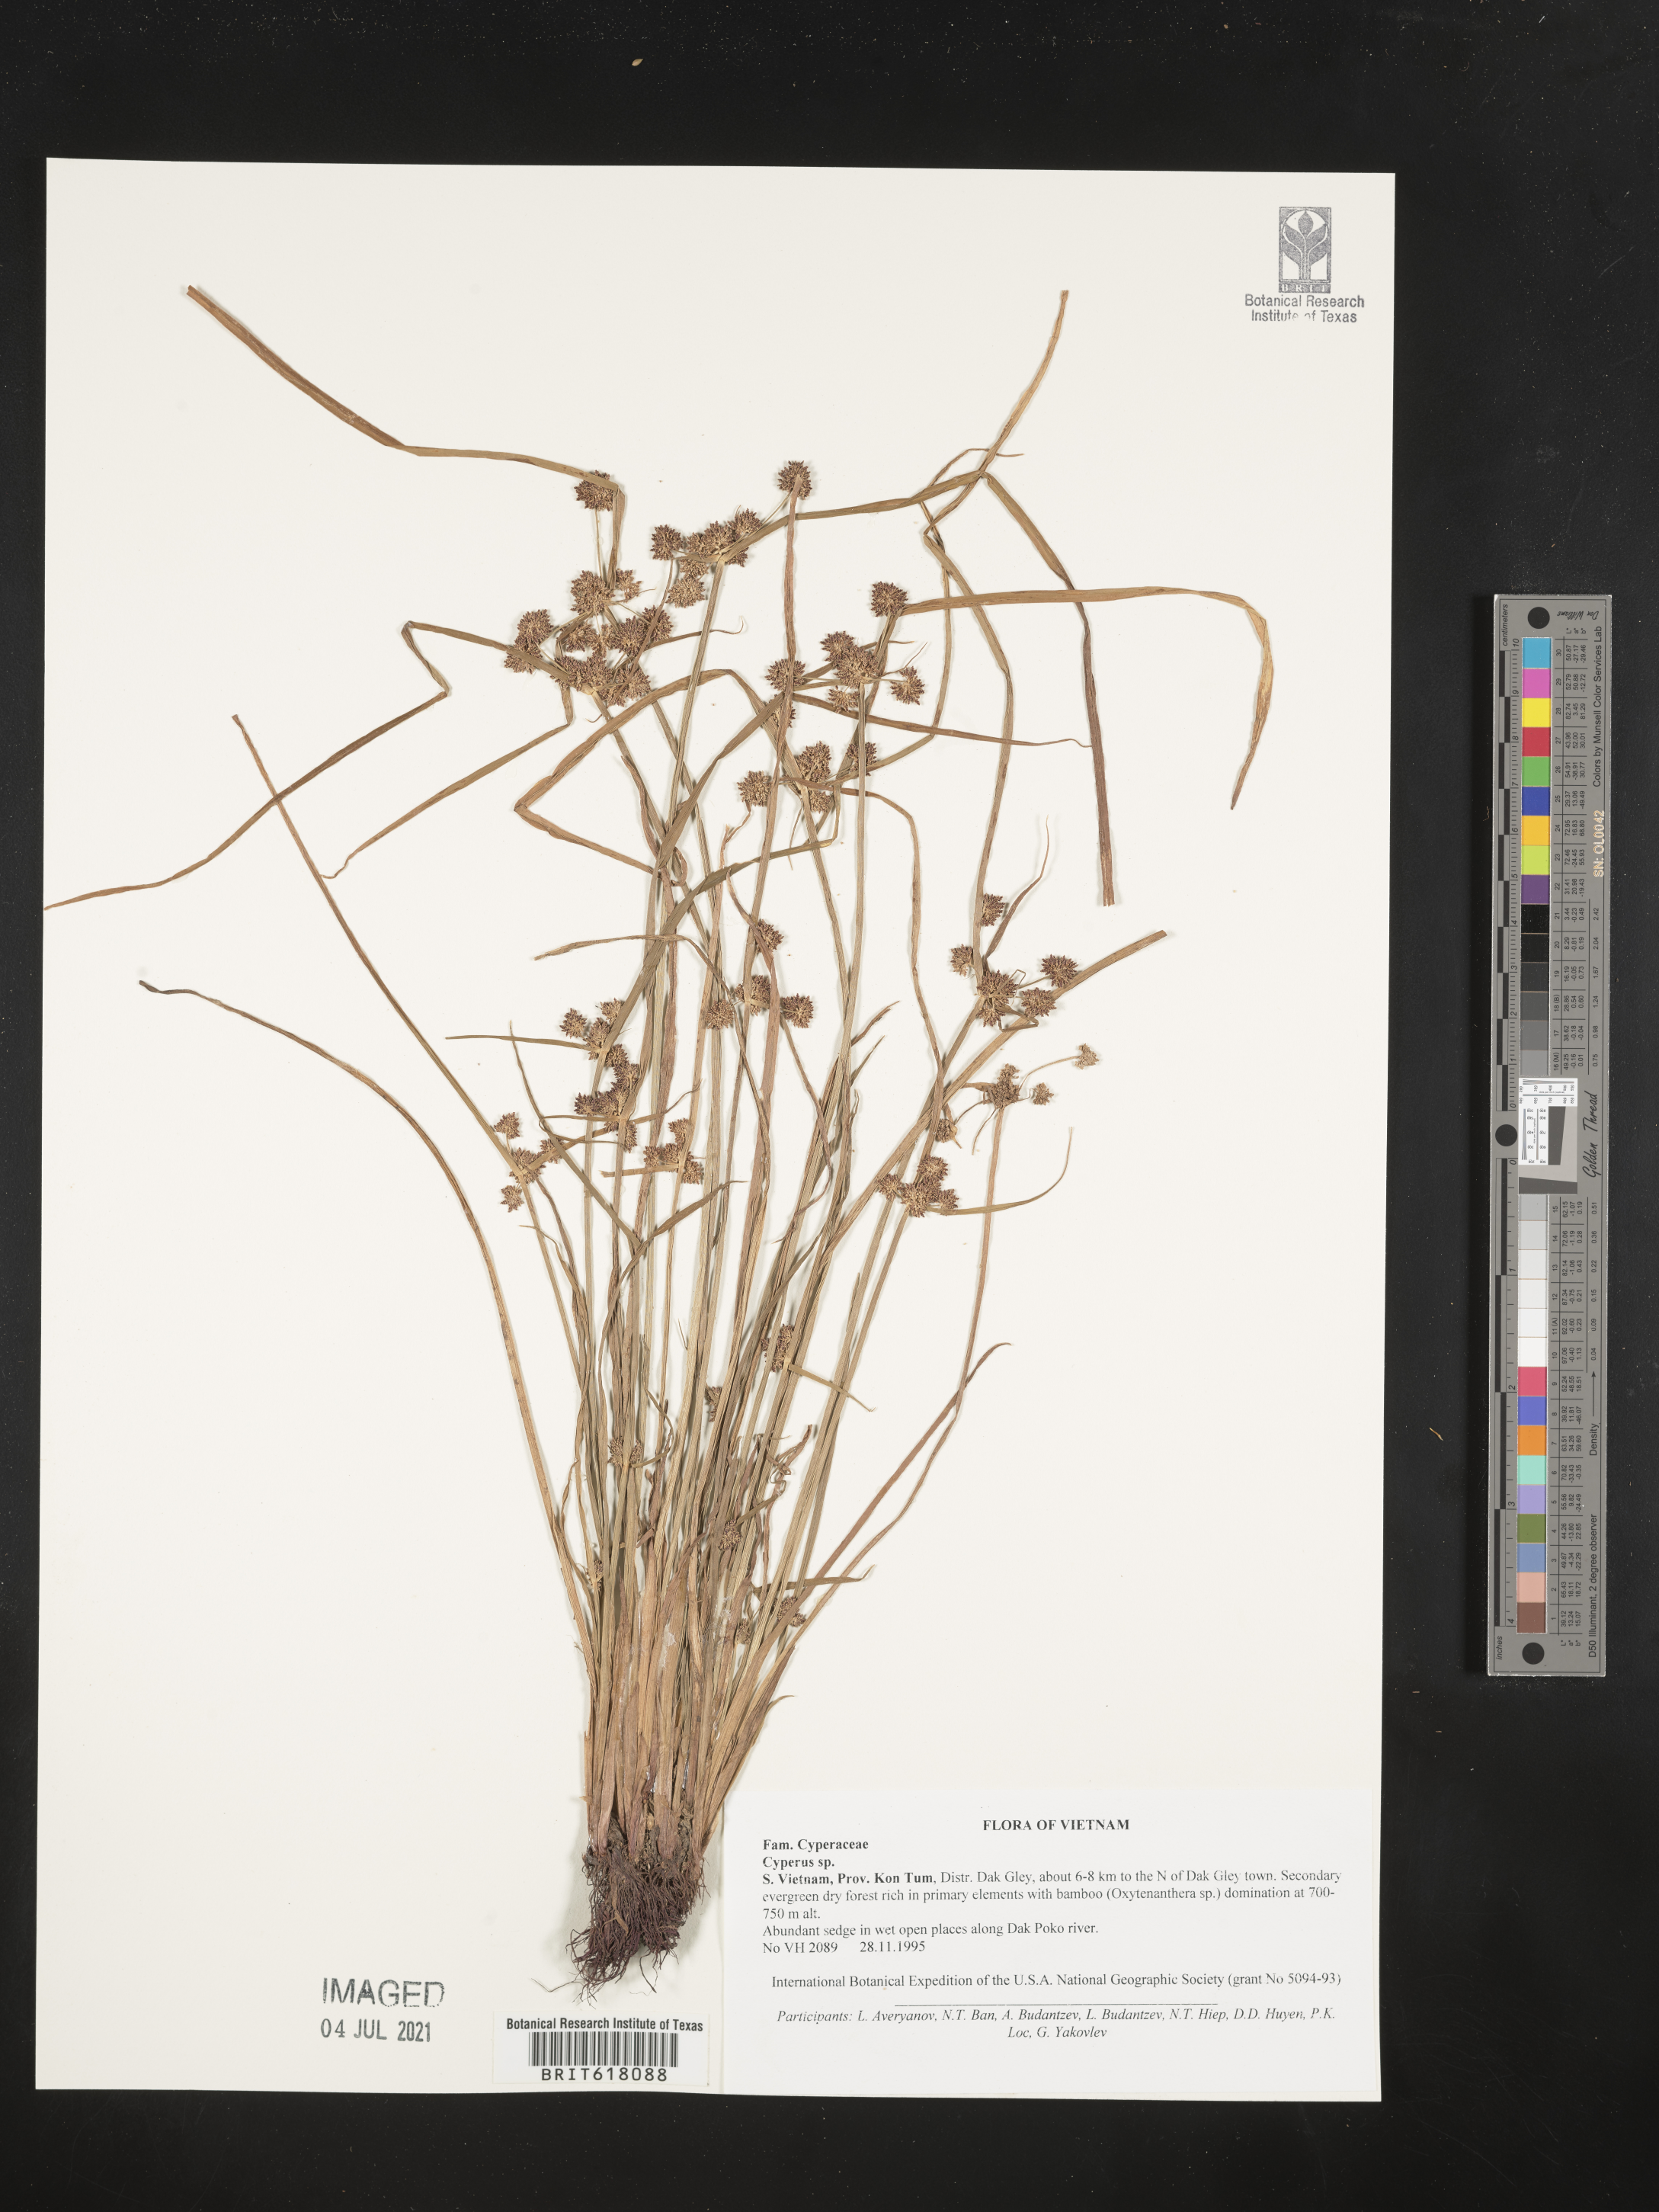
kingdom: Plantae
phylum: Tracheophyta
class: Liliopsida
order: Poales
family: Cyperaceae
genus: Cyperus
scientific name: Cyperus
